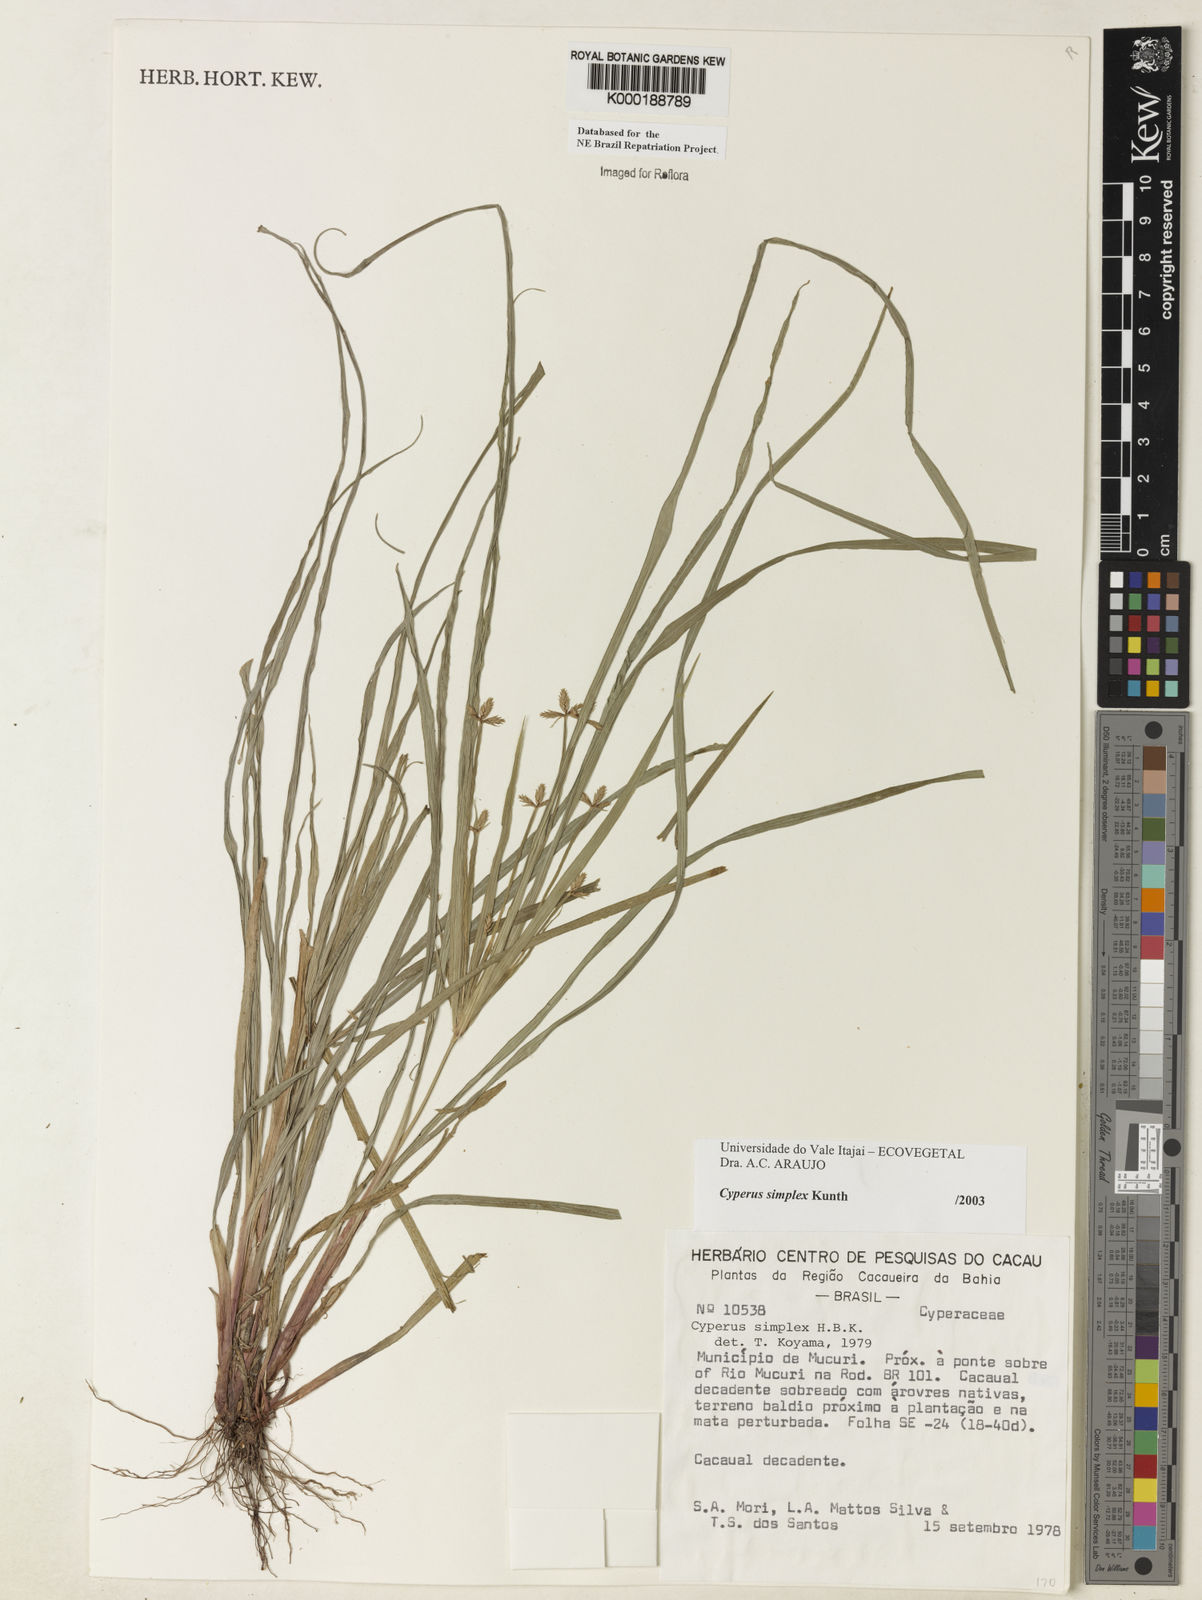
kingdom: Plantae
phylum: Tracheophyta
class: Liliopsida
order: Poales
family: Cyperaceae
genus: Cyperus
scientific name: Cyperus simplex
